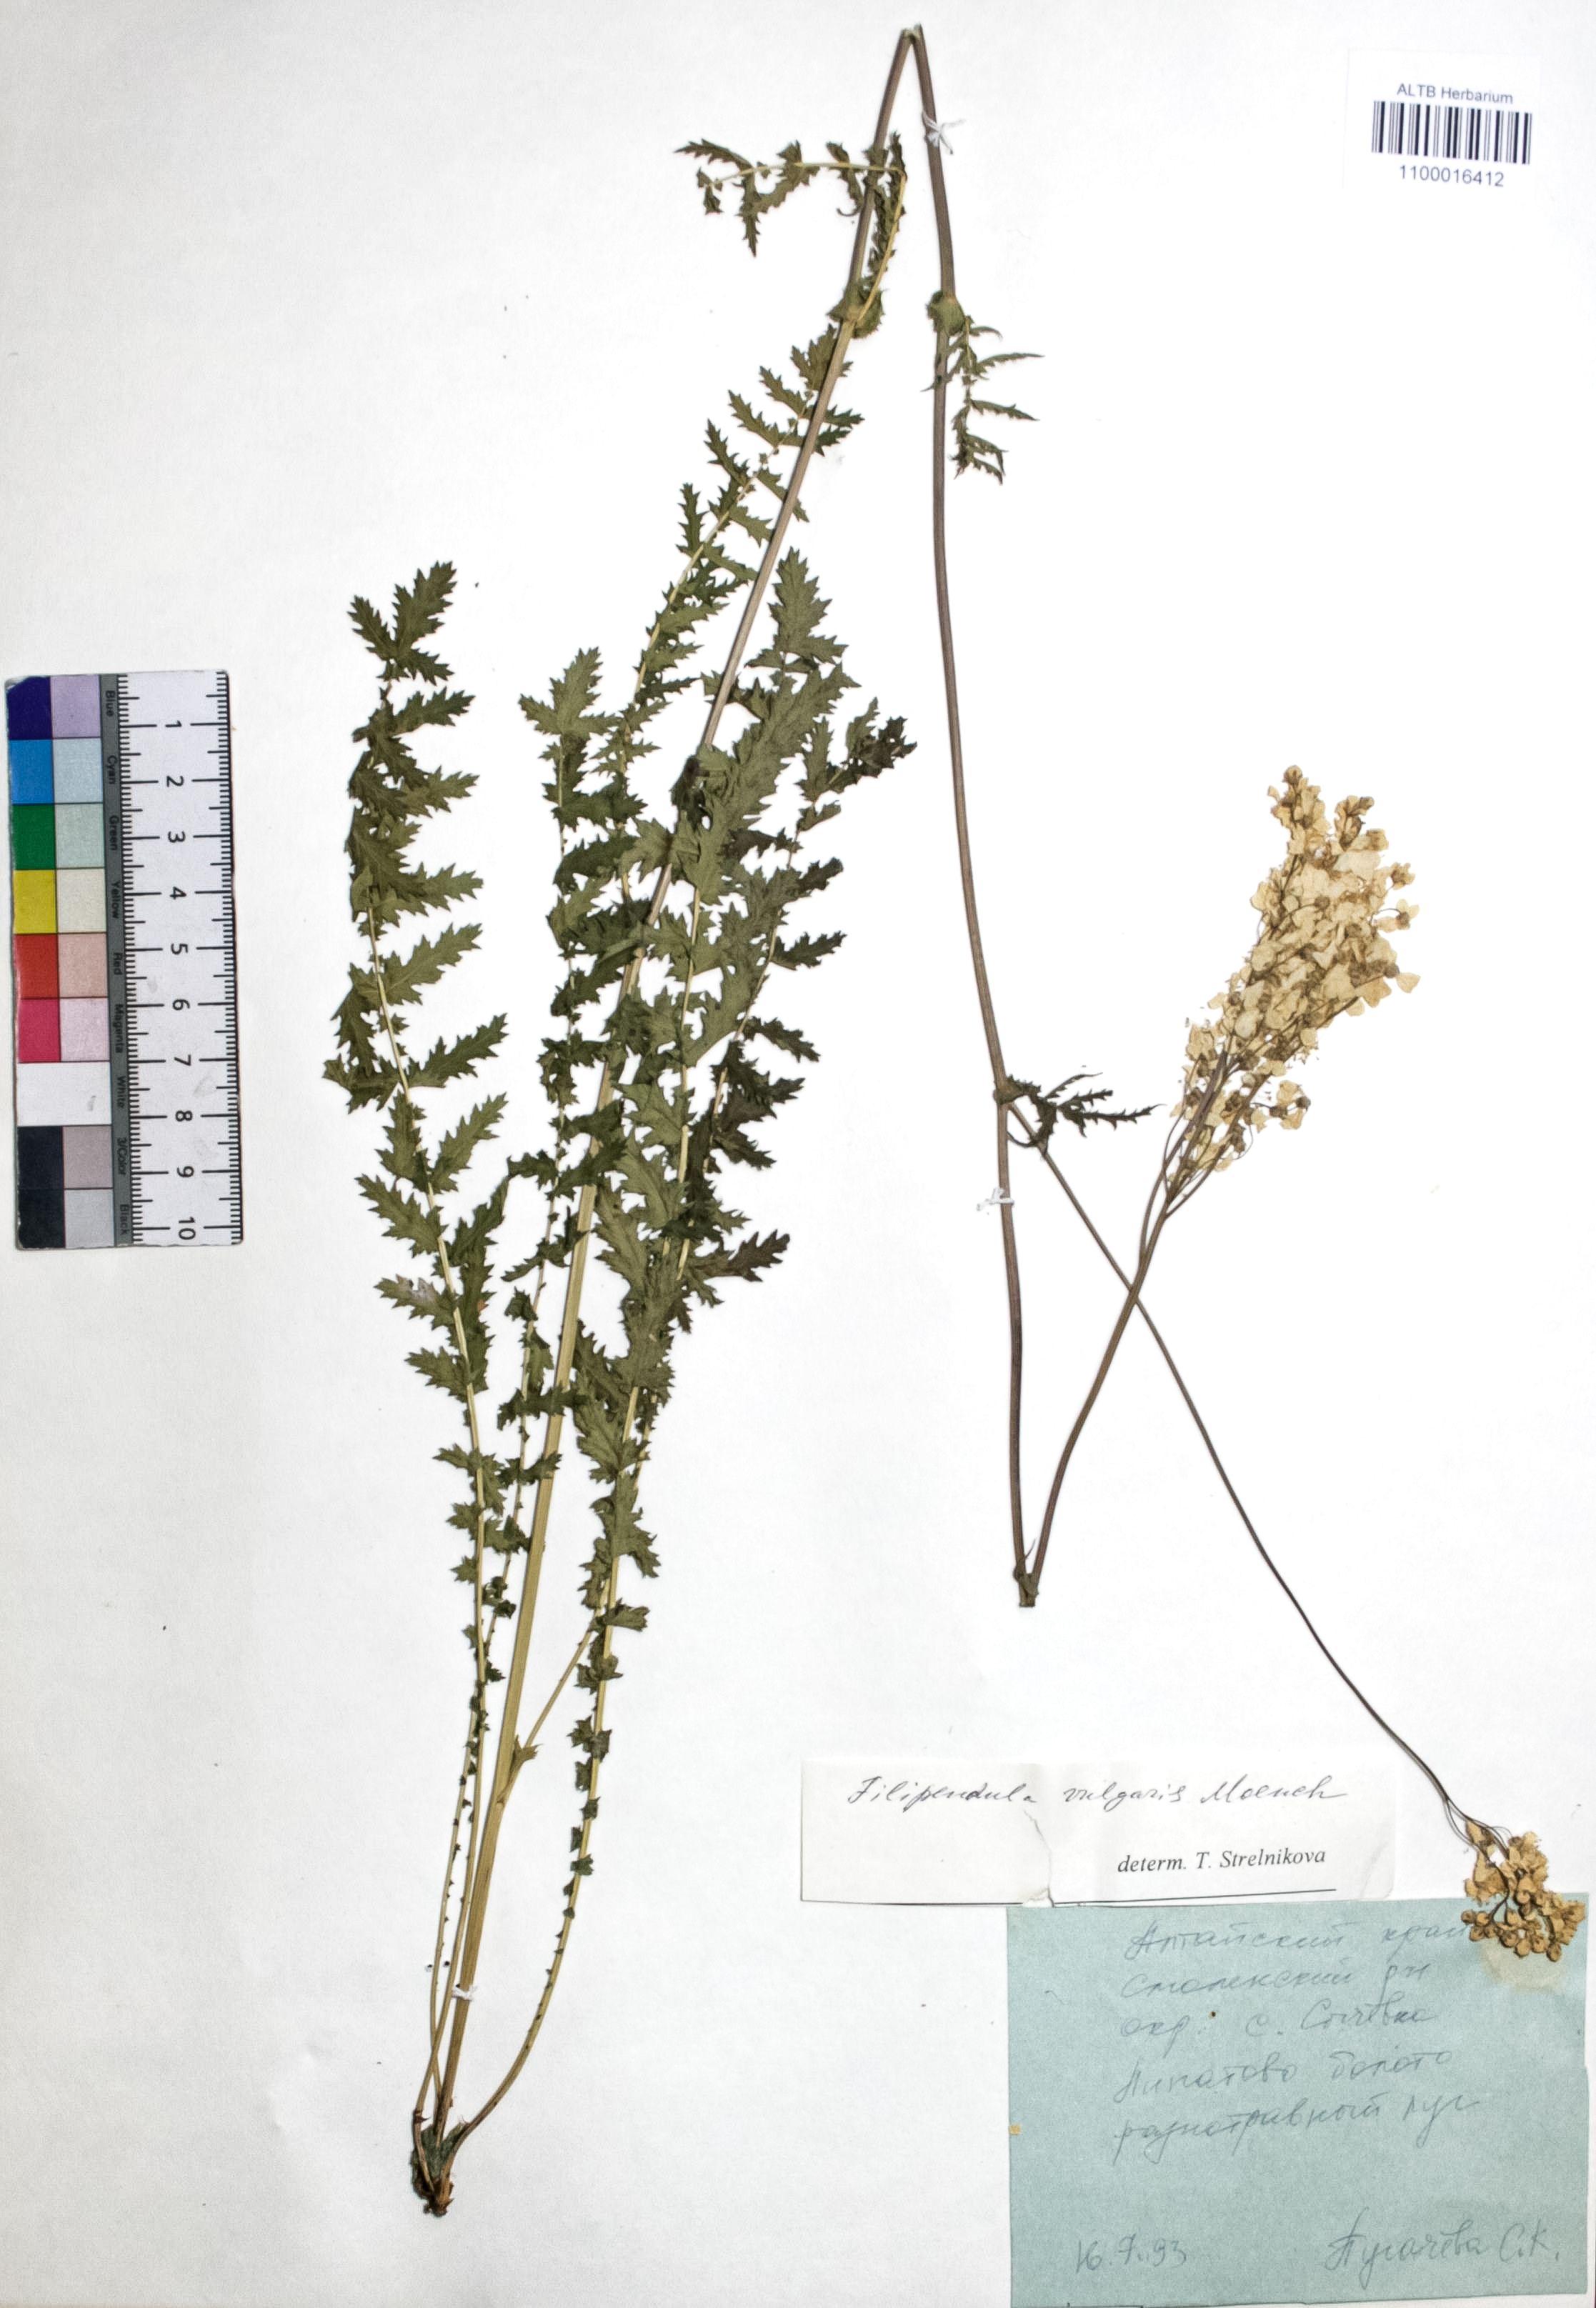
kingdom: Plantae
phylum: Tracheophyta
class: Magnoliopsida
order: Rosales
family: Rosaceae
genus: Filipendula
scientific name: Filipendula vulgaris
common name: Dropwort
